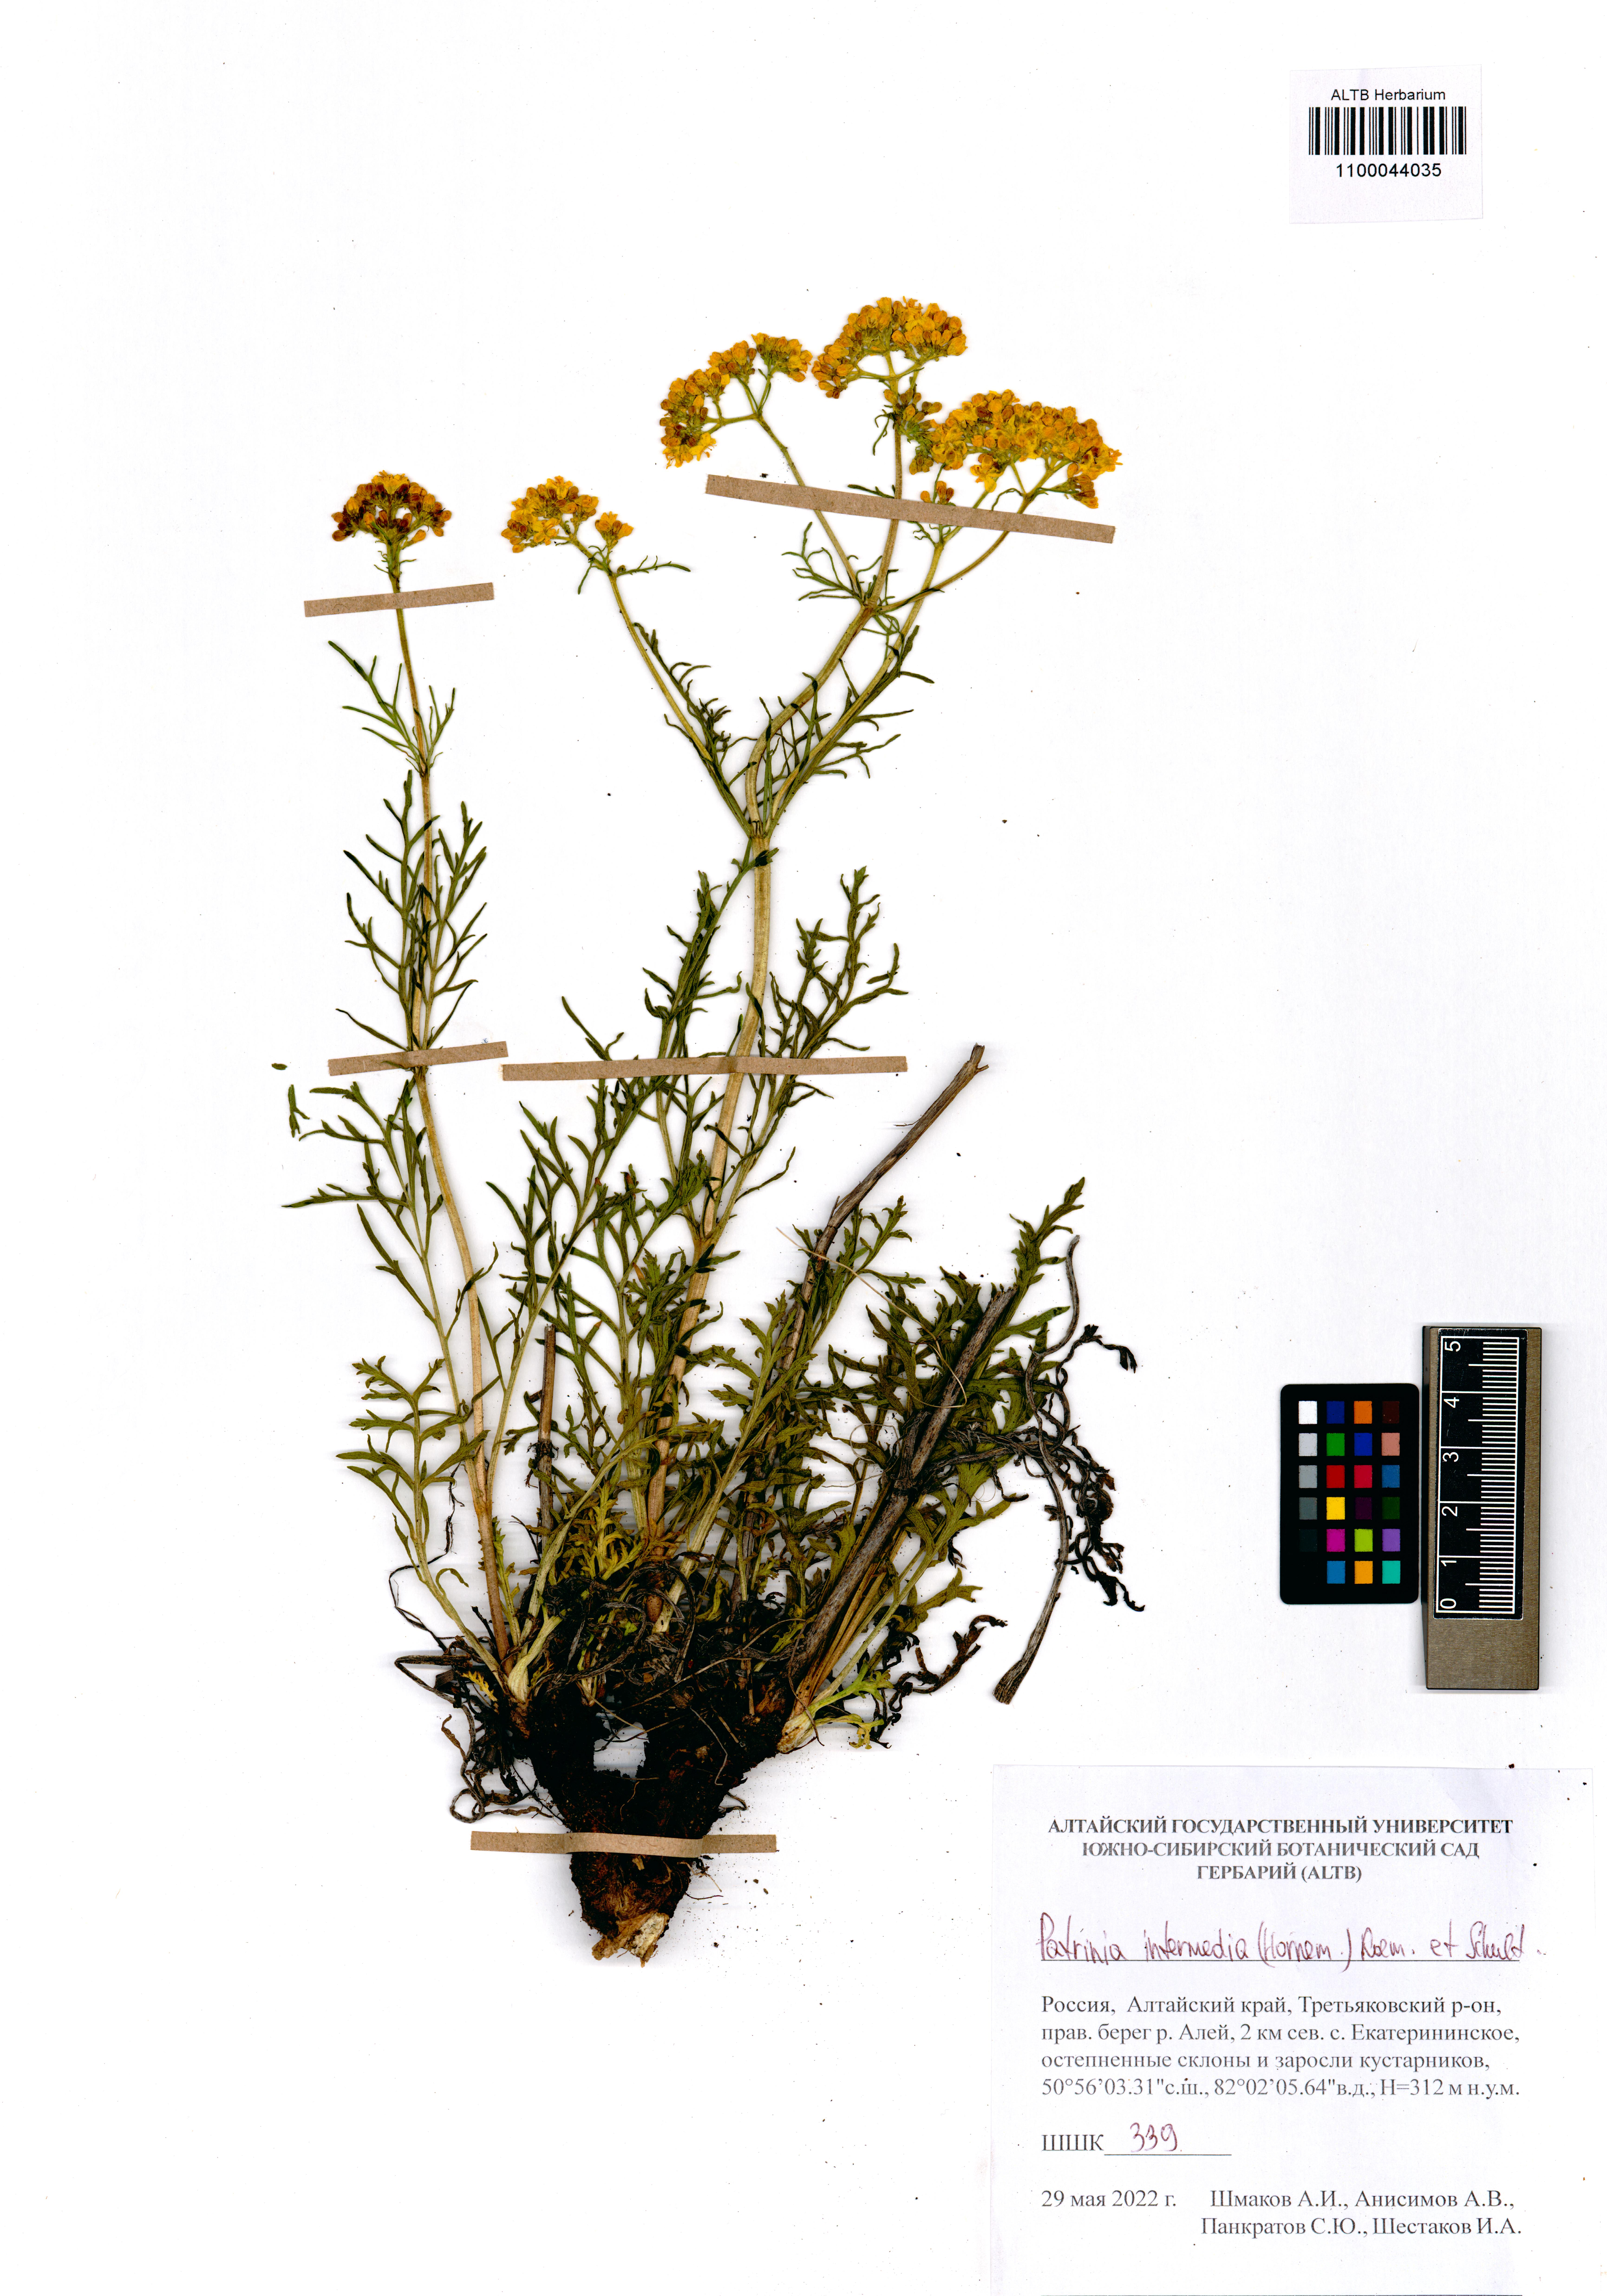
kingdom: Plantae
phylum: Tracheophyta
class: Magnoliopsida
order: Dipsacales
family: Caprifoliaceae
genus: Patrinia
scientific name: Patrinia intermedia
